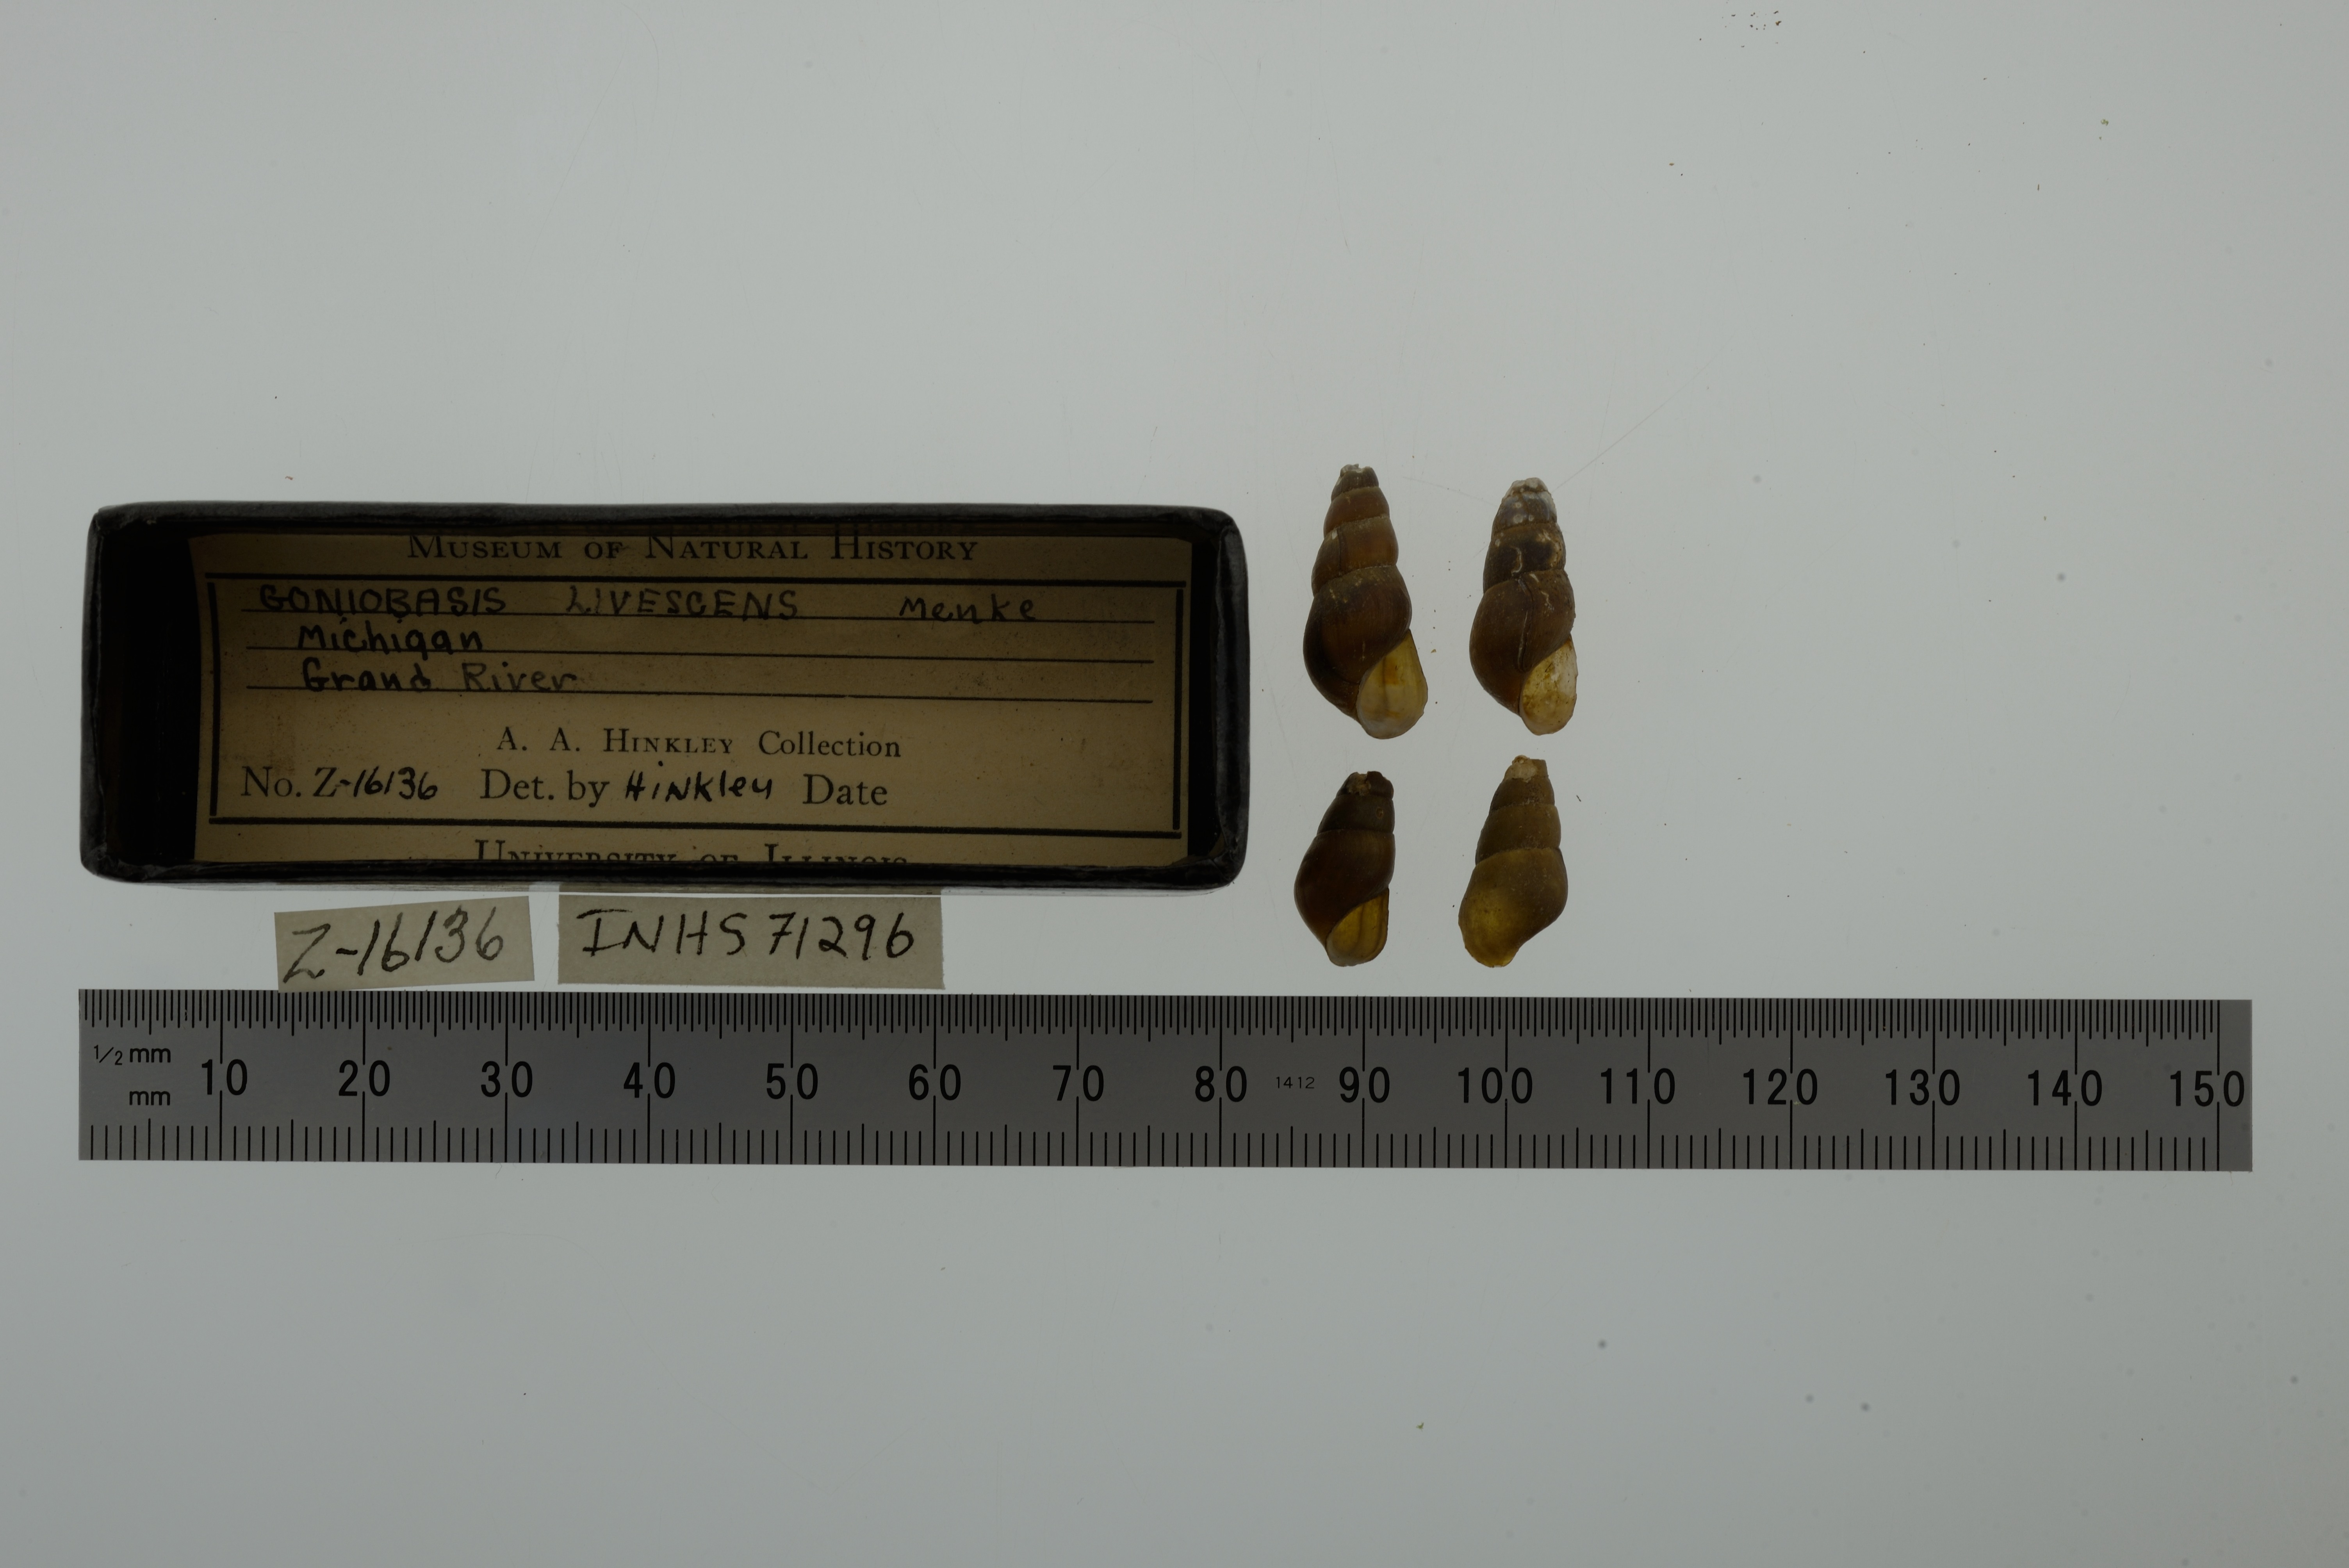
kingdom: Animalia
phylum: Mollusca
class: Gastropoda
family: Pleuroceridae
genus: Elimia
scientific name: Elimia livescens
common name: Liver elimia
